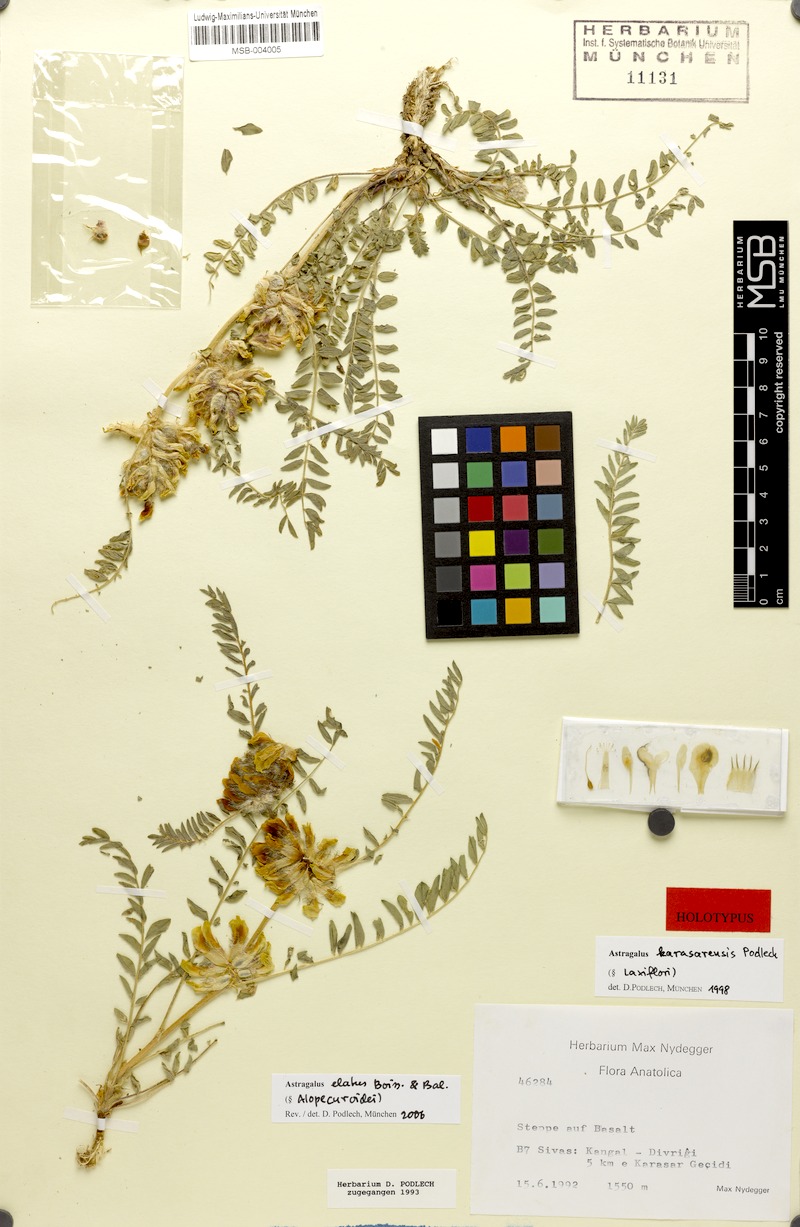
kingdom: Plantae
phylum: Tracheophyta
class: Magnoliopsida
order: Fabales
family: Fabaceae
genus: Astragalus
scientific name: Astragalus elatus
